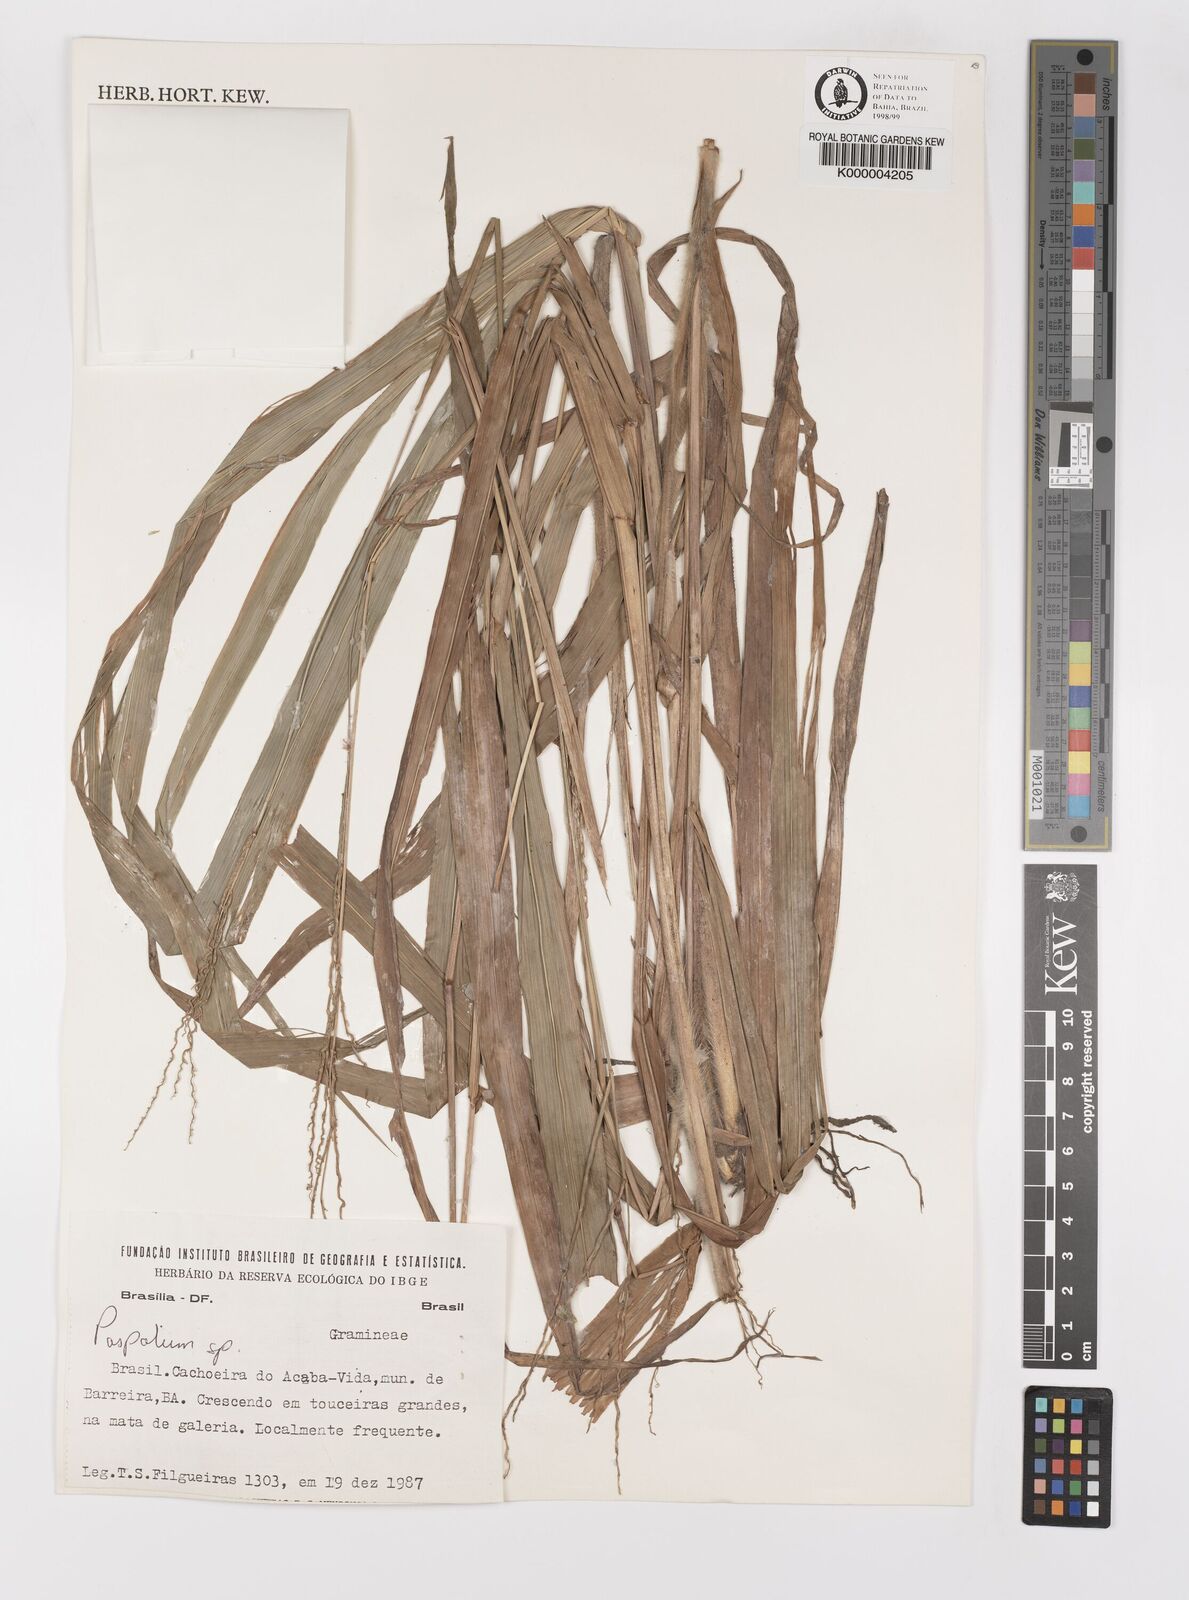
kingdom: Plantae
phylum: Tracheophyta
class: Liliopsida
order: Poales
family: Poaceae
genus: Paspalum
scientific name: Paspalum pilosum
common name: Crowngrass
